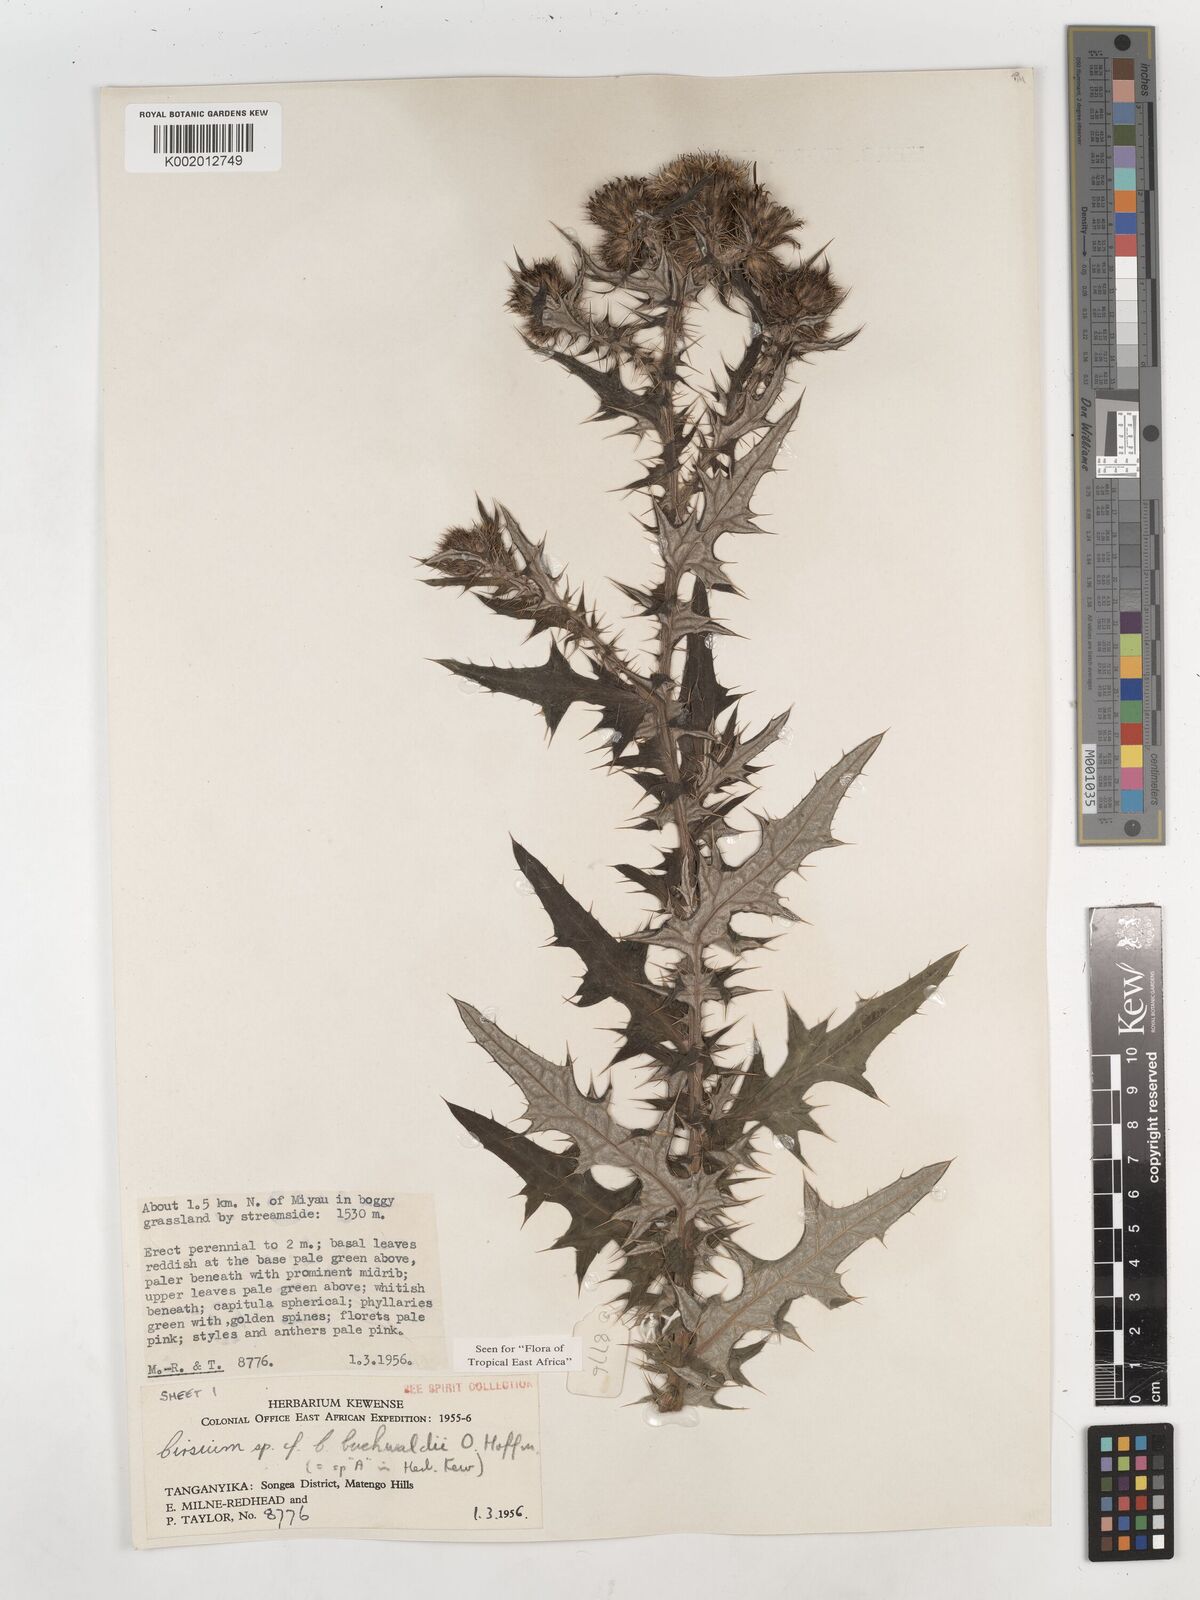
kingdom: Plantae
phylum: Tracheophyta
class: Magnoliopsida
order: Asterales
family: Asteraceae
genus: Cirsium
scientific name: Cirsium buchwaldii
